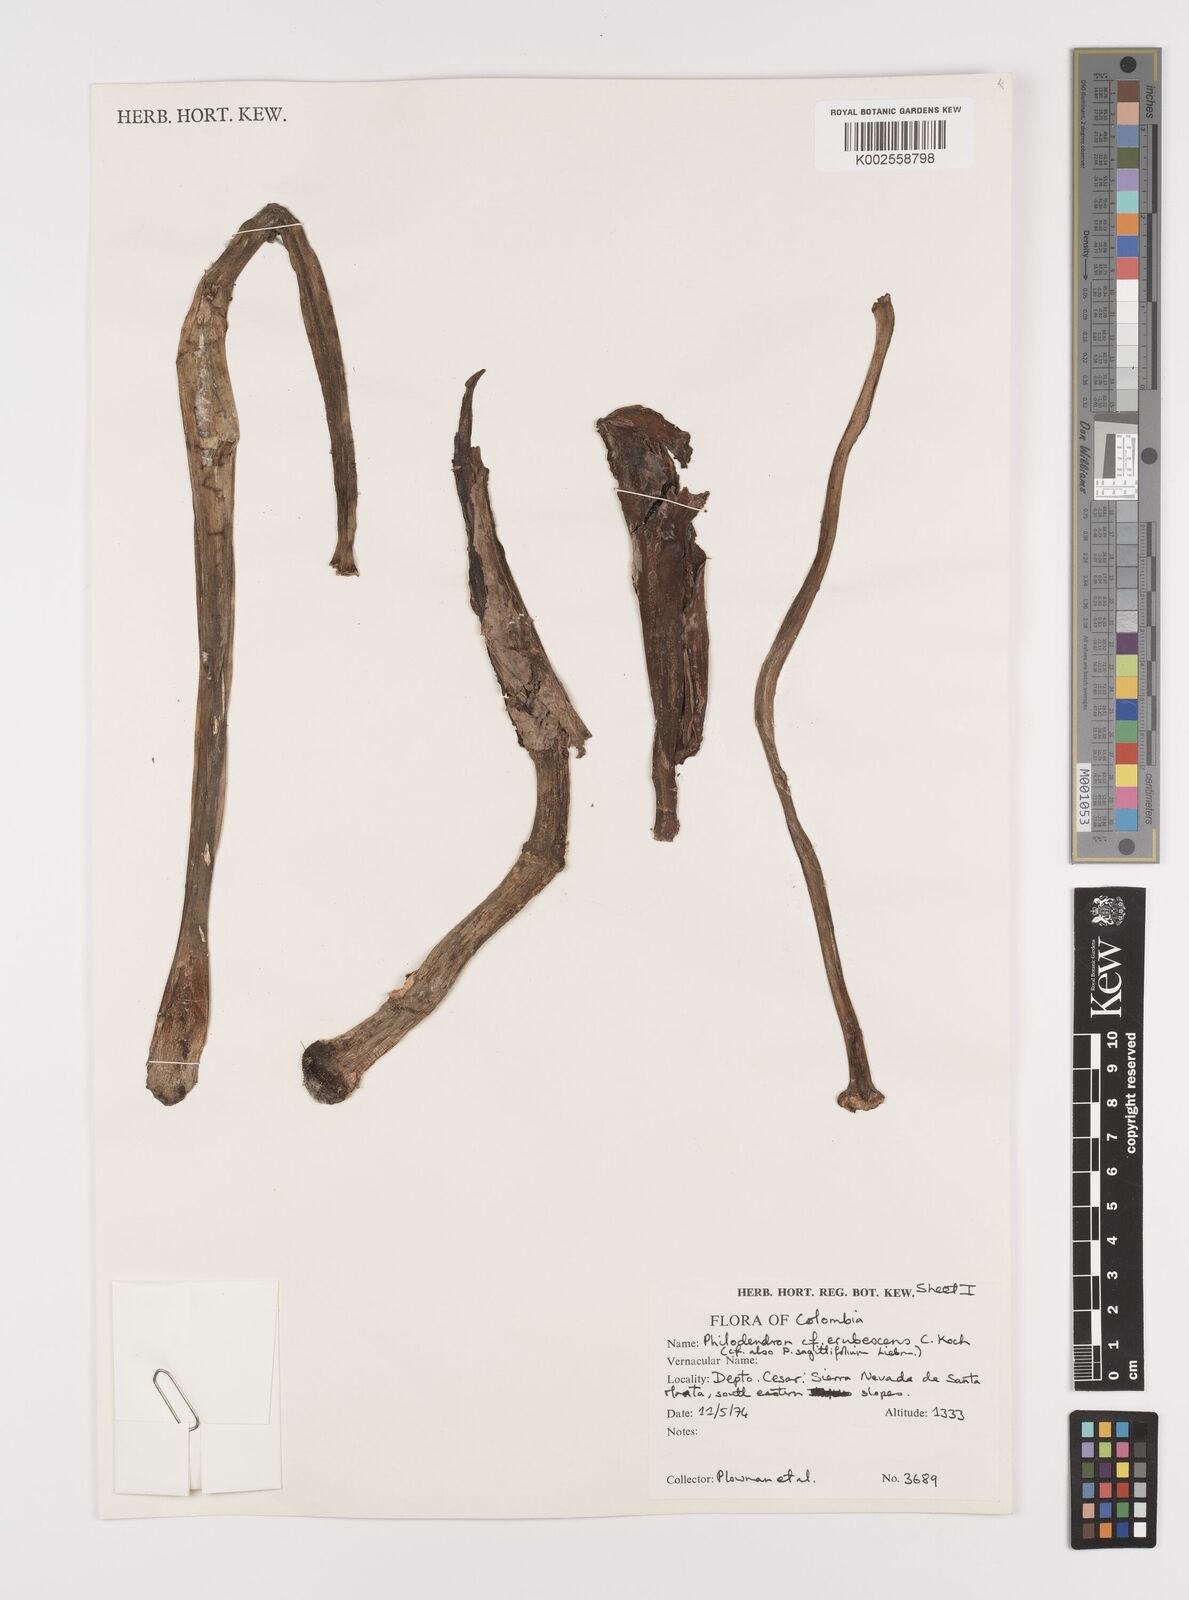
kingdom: Plantae
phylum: Tracheophyta
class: Liliopsida
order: Alismatales
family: Araceae
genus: Philodendron
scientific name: Philodendron erubescens
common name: Philodendron
